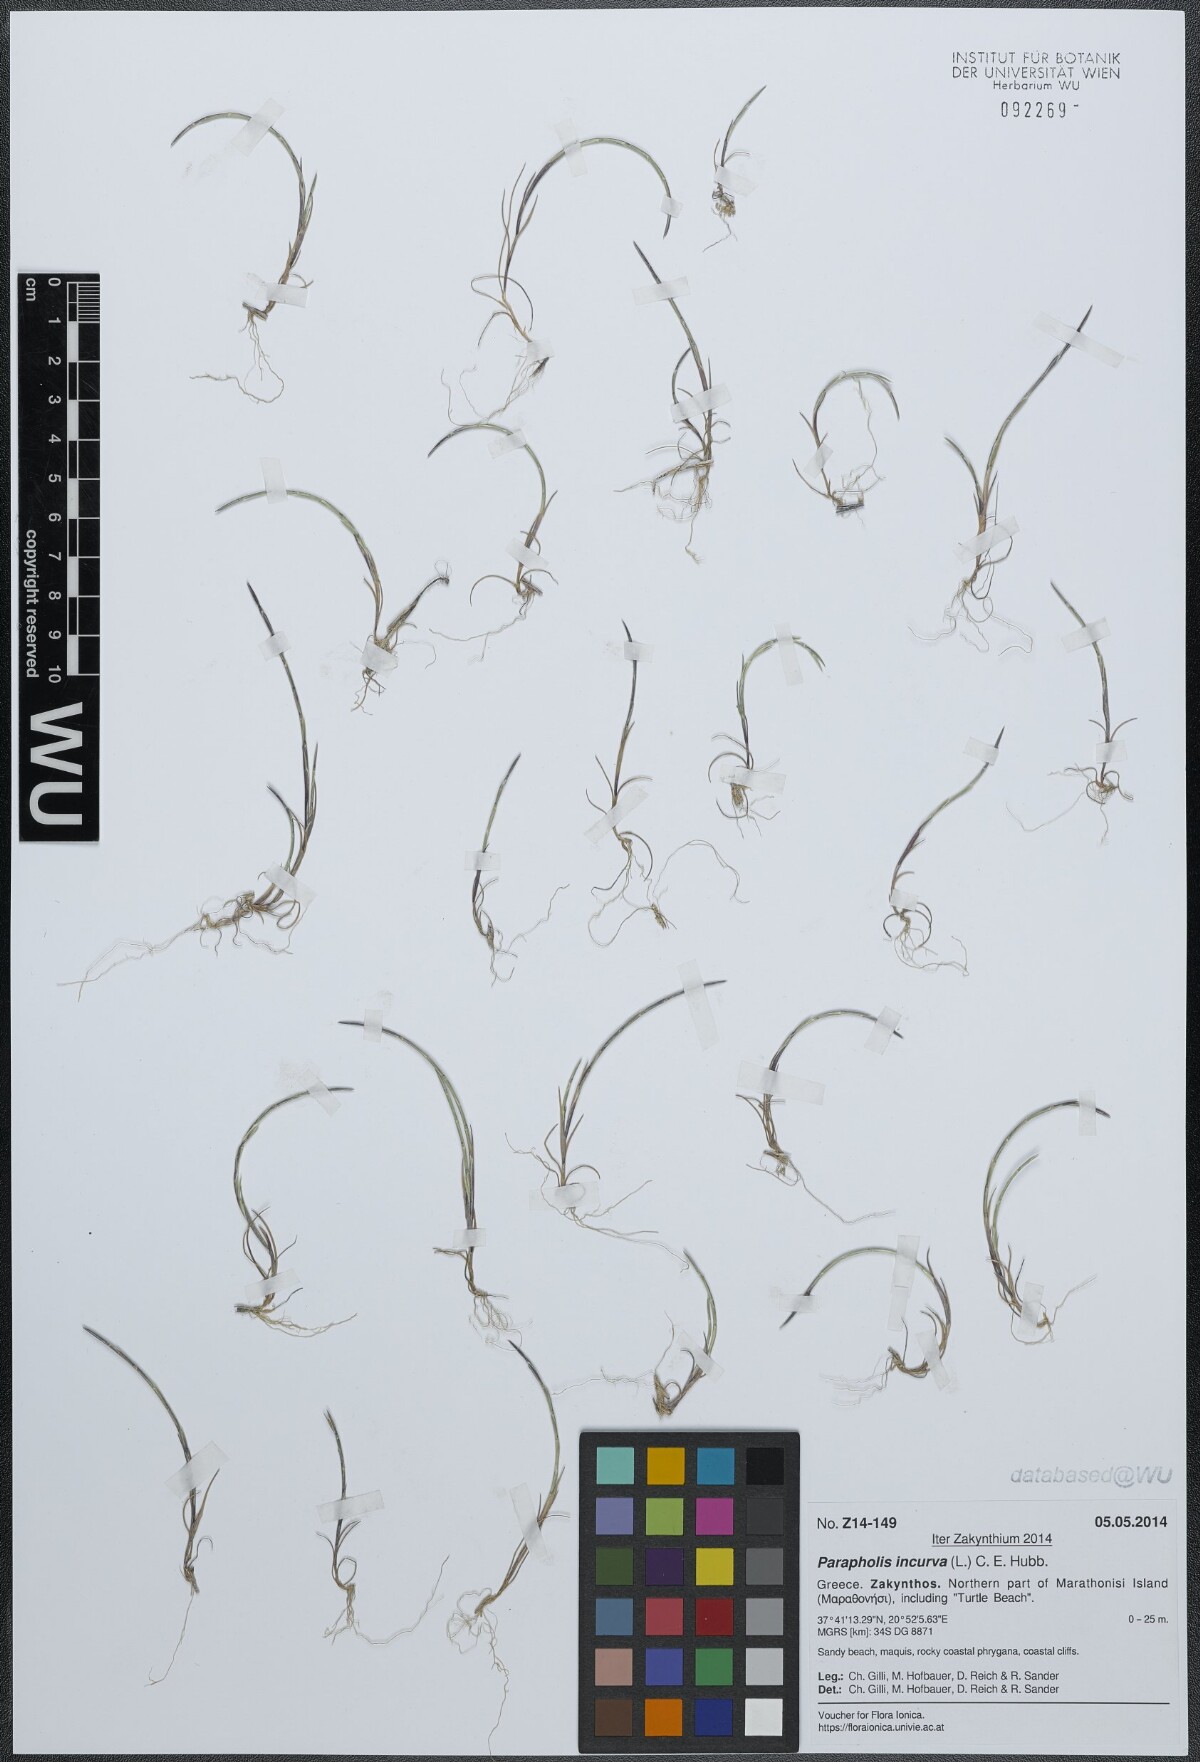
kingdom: Plantae
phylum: Tracheophyta
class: Liliopsida
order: Poales
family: Poaceae
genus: Parapholis
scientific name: Parapholis incurva
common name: Curved sicklegrass
